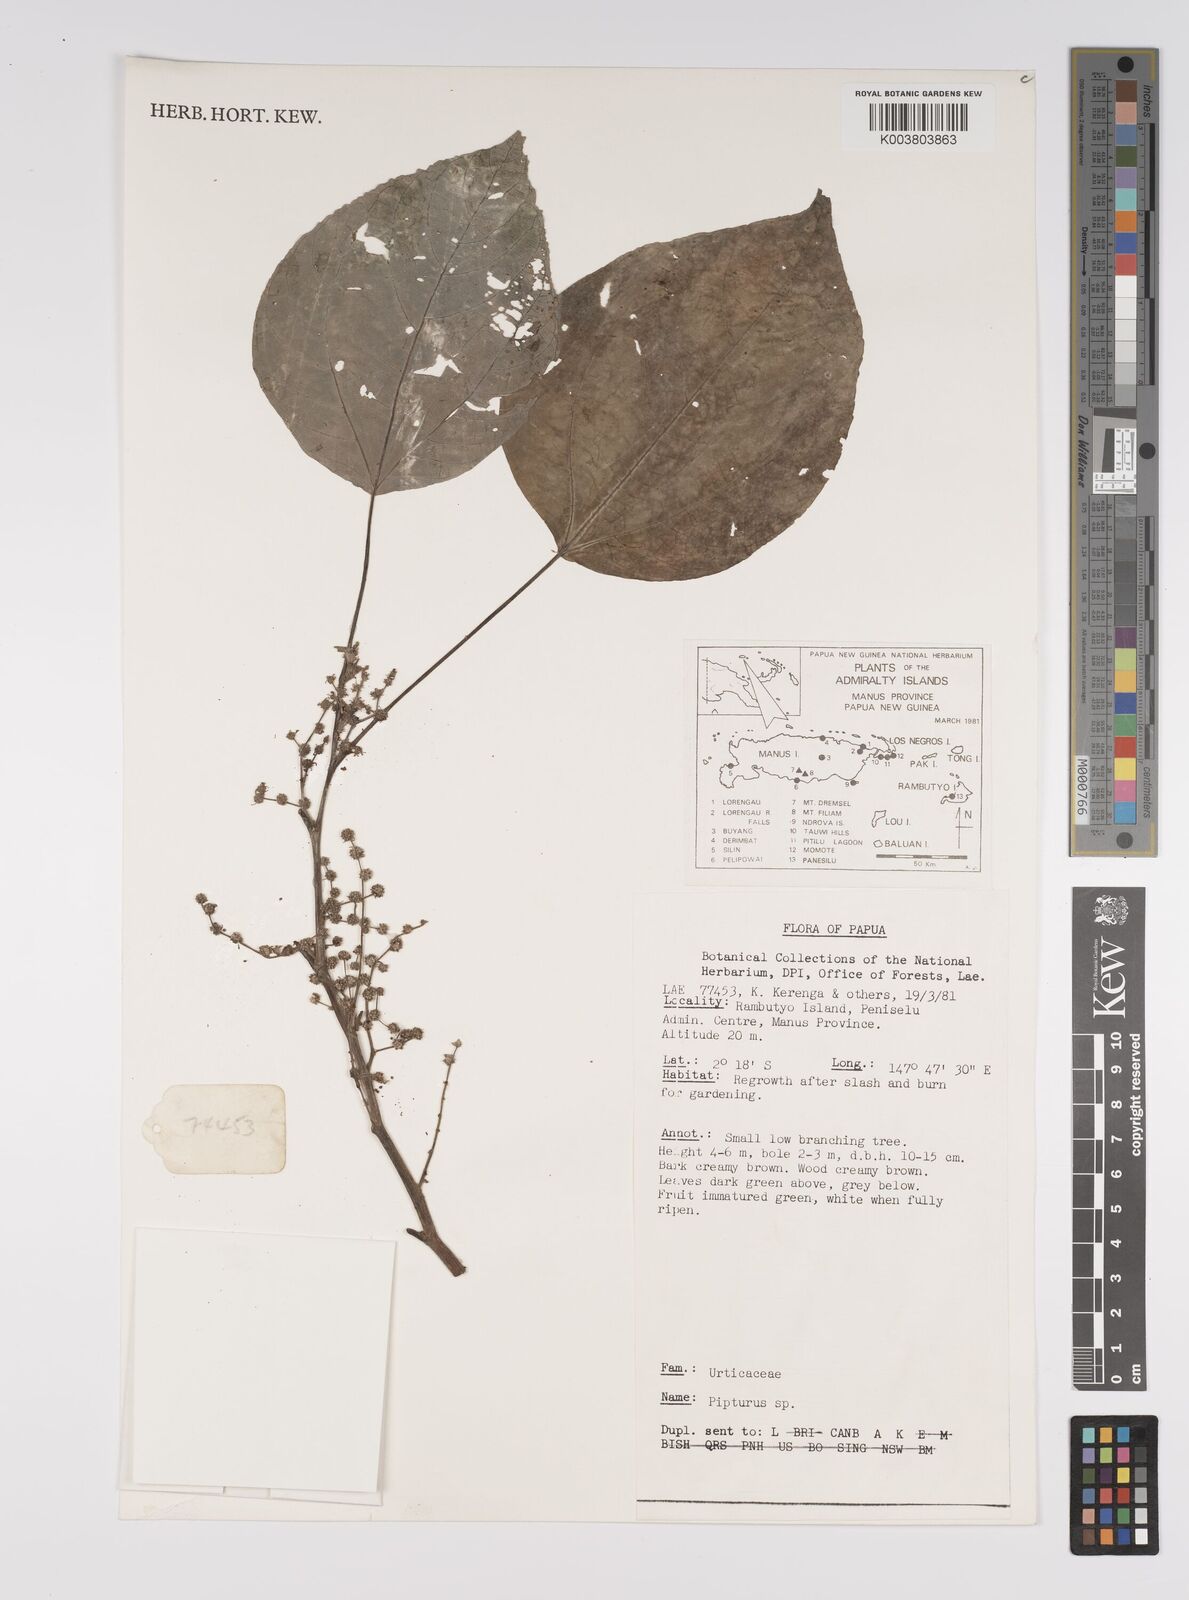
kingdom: Plantae
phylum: Tracheophyta
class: Magnoliopsida
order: Rosales
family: Urticaceae
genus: Pipturus
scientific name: Pipturus argenteus
